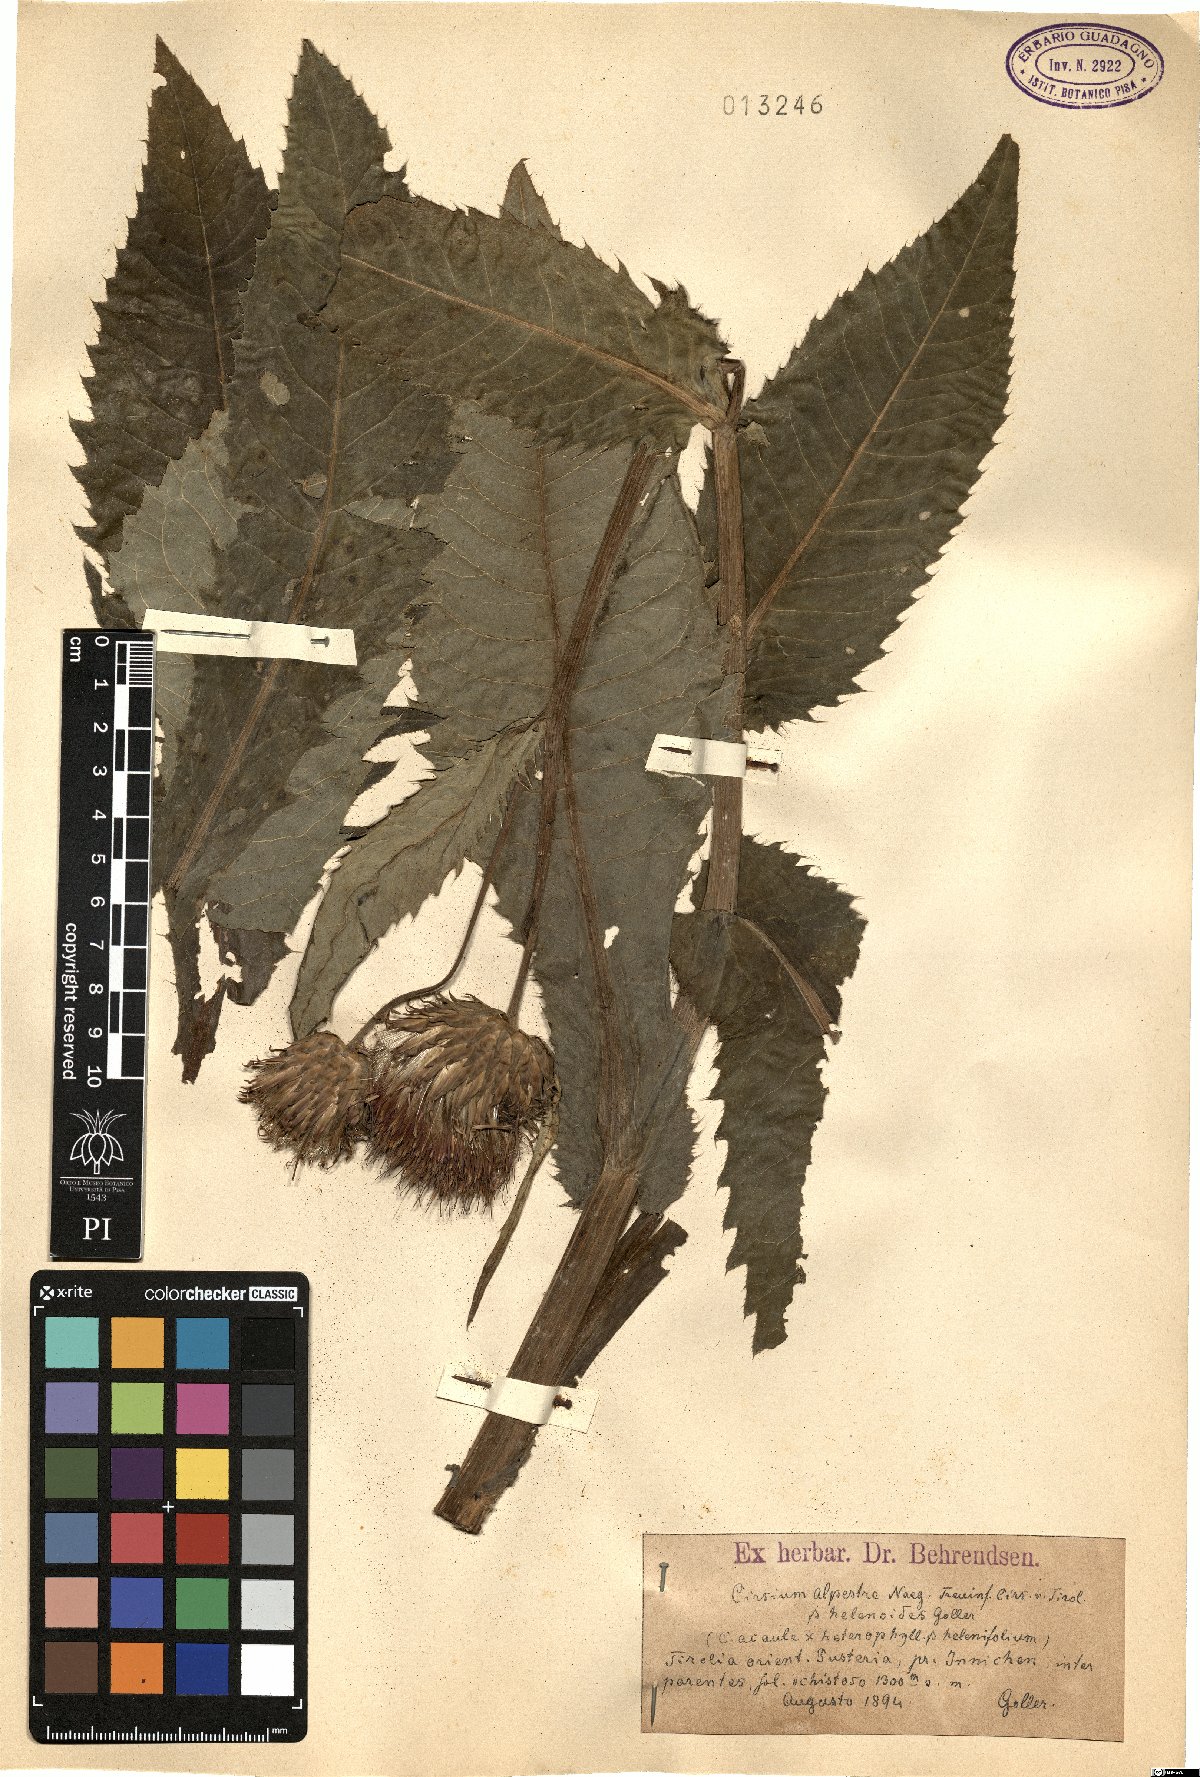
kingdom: Plantae
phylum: Tracheophyta
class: Magnoliopsida
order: Asterales
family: Asteraceae
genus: Cirsium
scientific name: Cirsium alpestre
